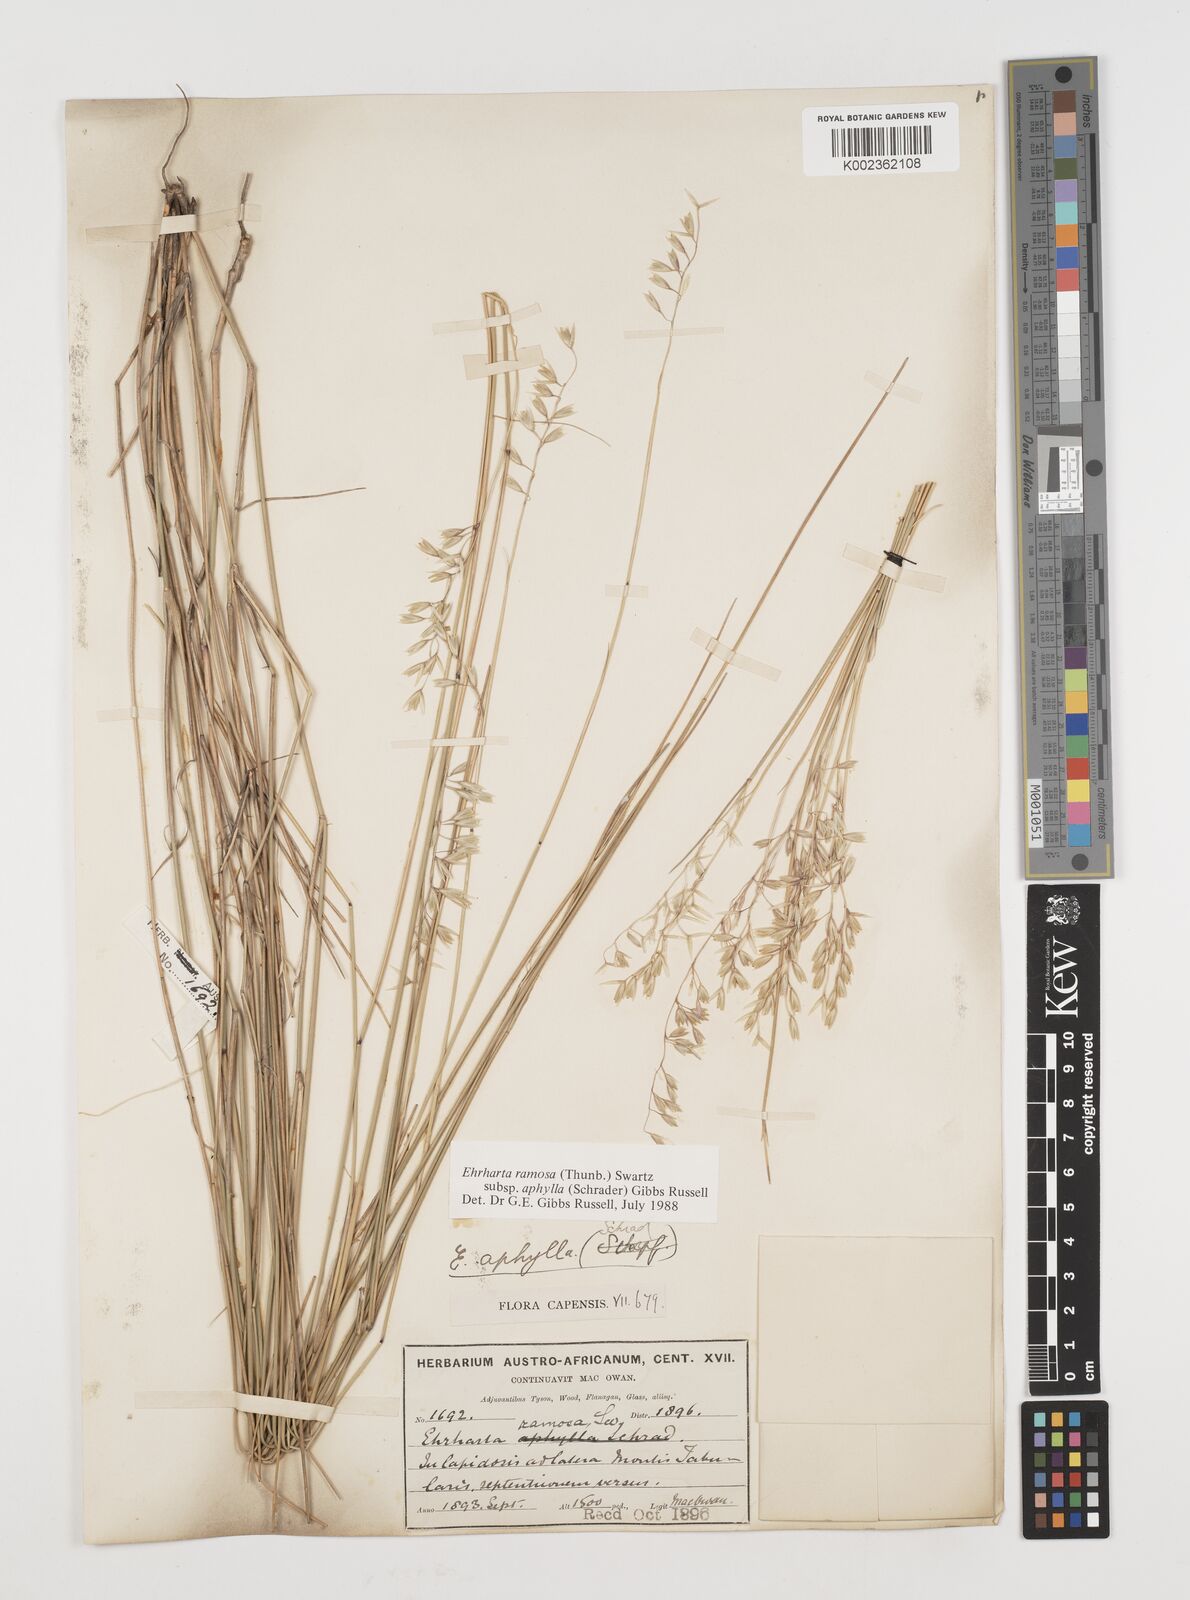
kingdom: Plantae
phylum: Tracheophyta
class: Liliopsida
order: Poales
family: Poaceae
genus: Ehrharta
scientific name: Ehrharta digyna
